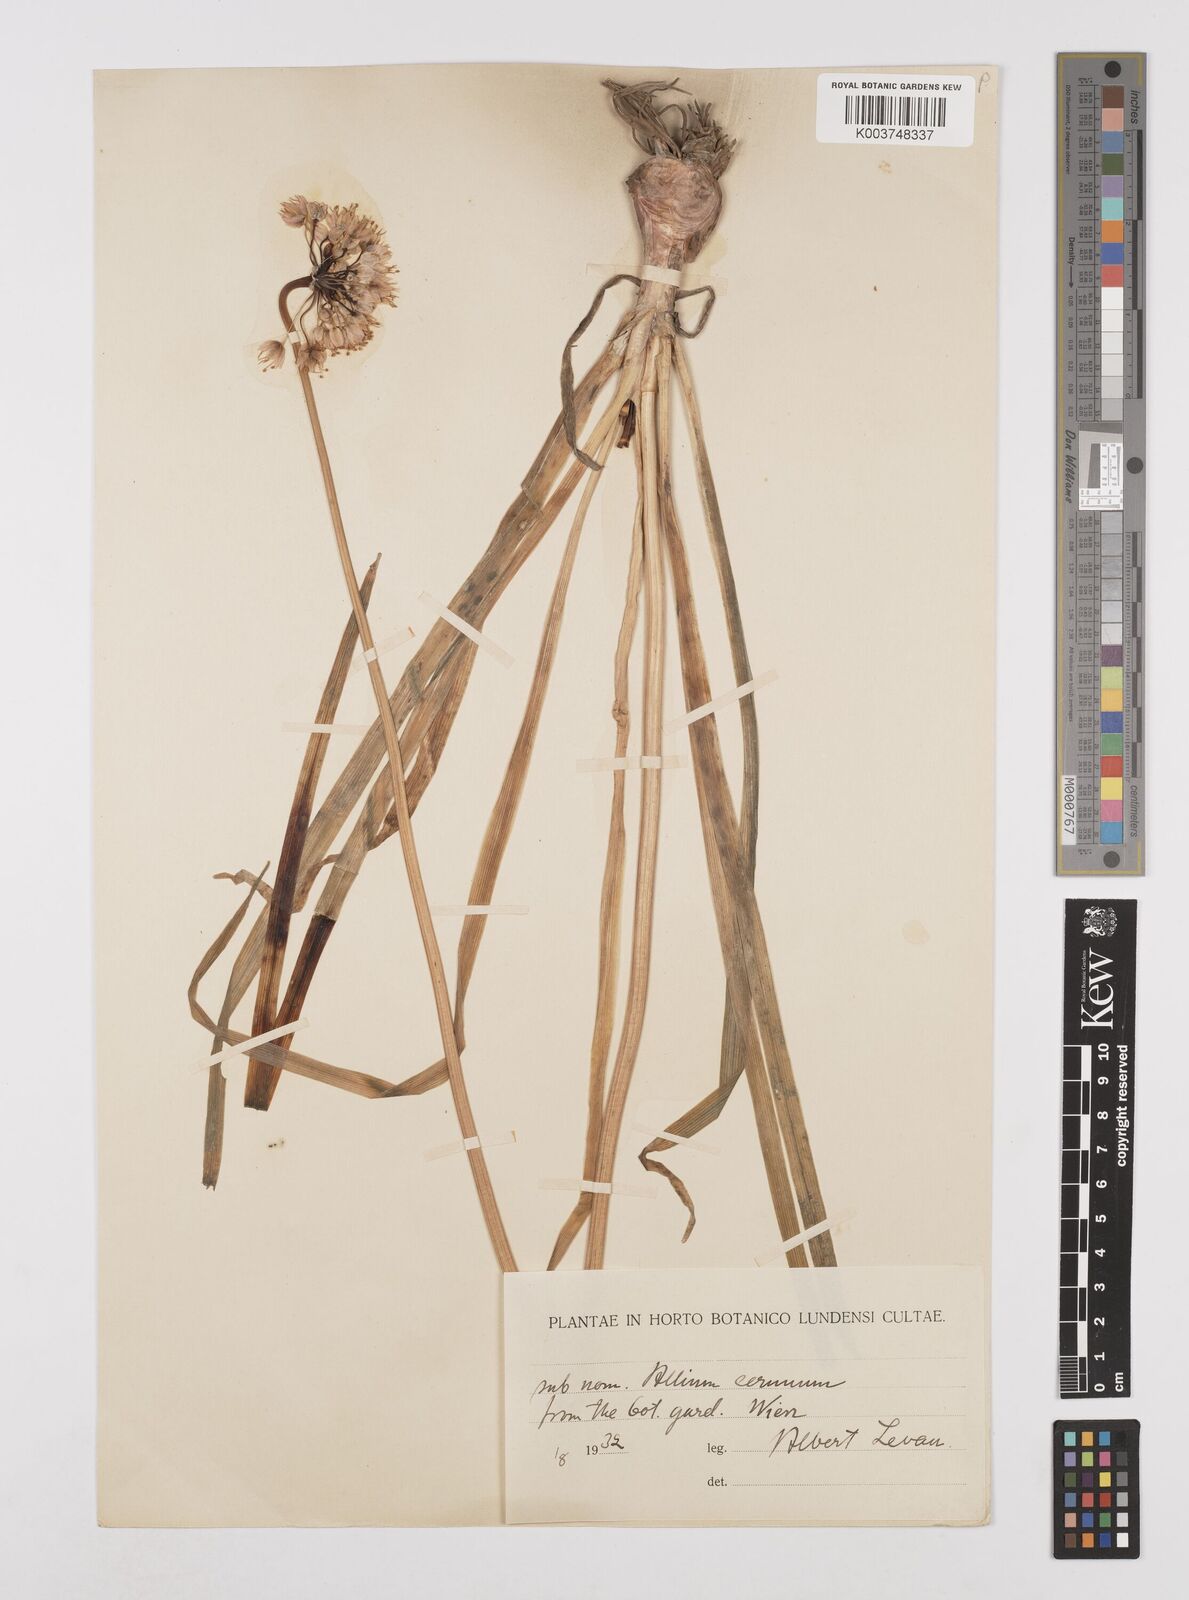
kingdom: Plantae
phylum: Tracheophyta
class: Liliopsida
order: Asparagales
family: Amaryllidaceae
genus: Allium
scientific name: Allium cernuum
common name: Nodding onion
